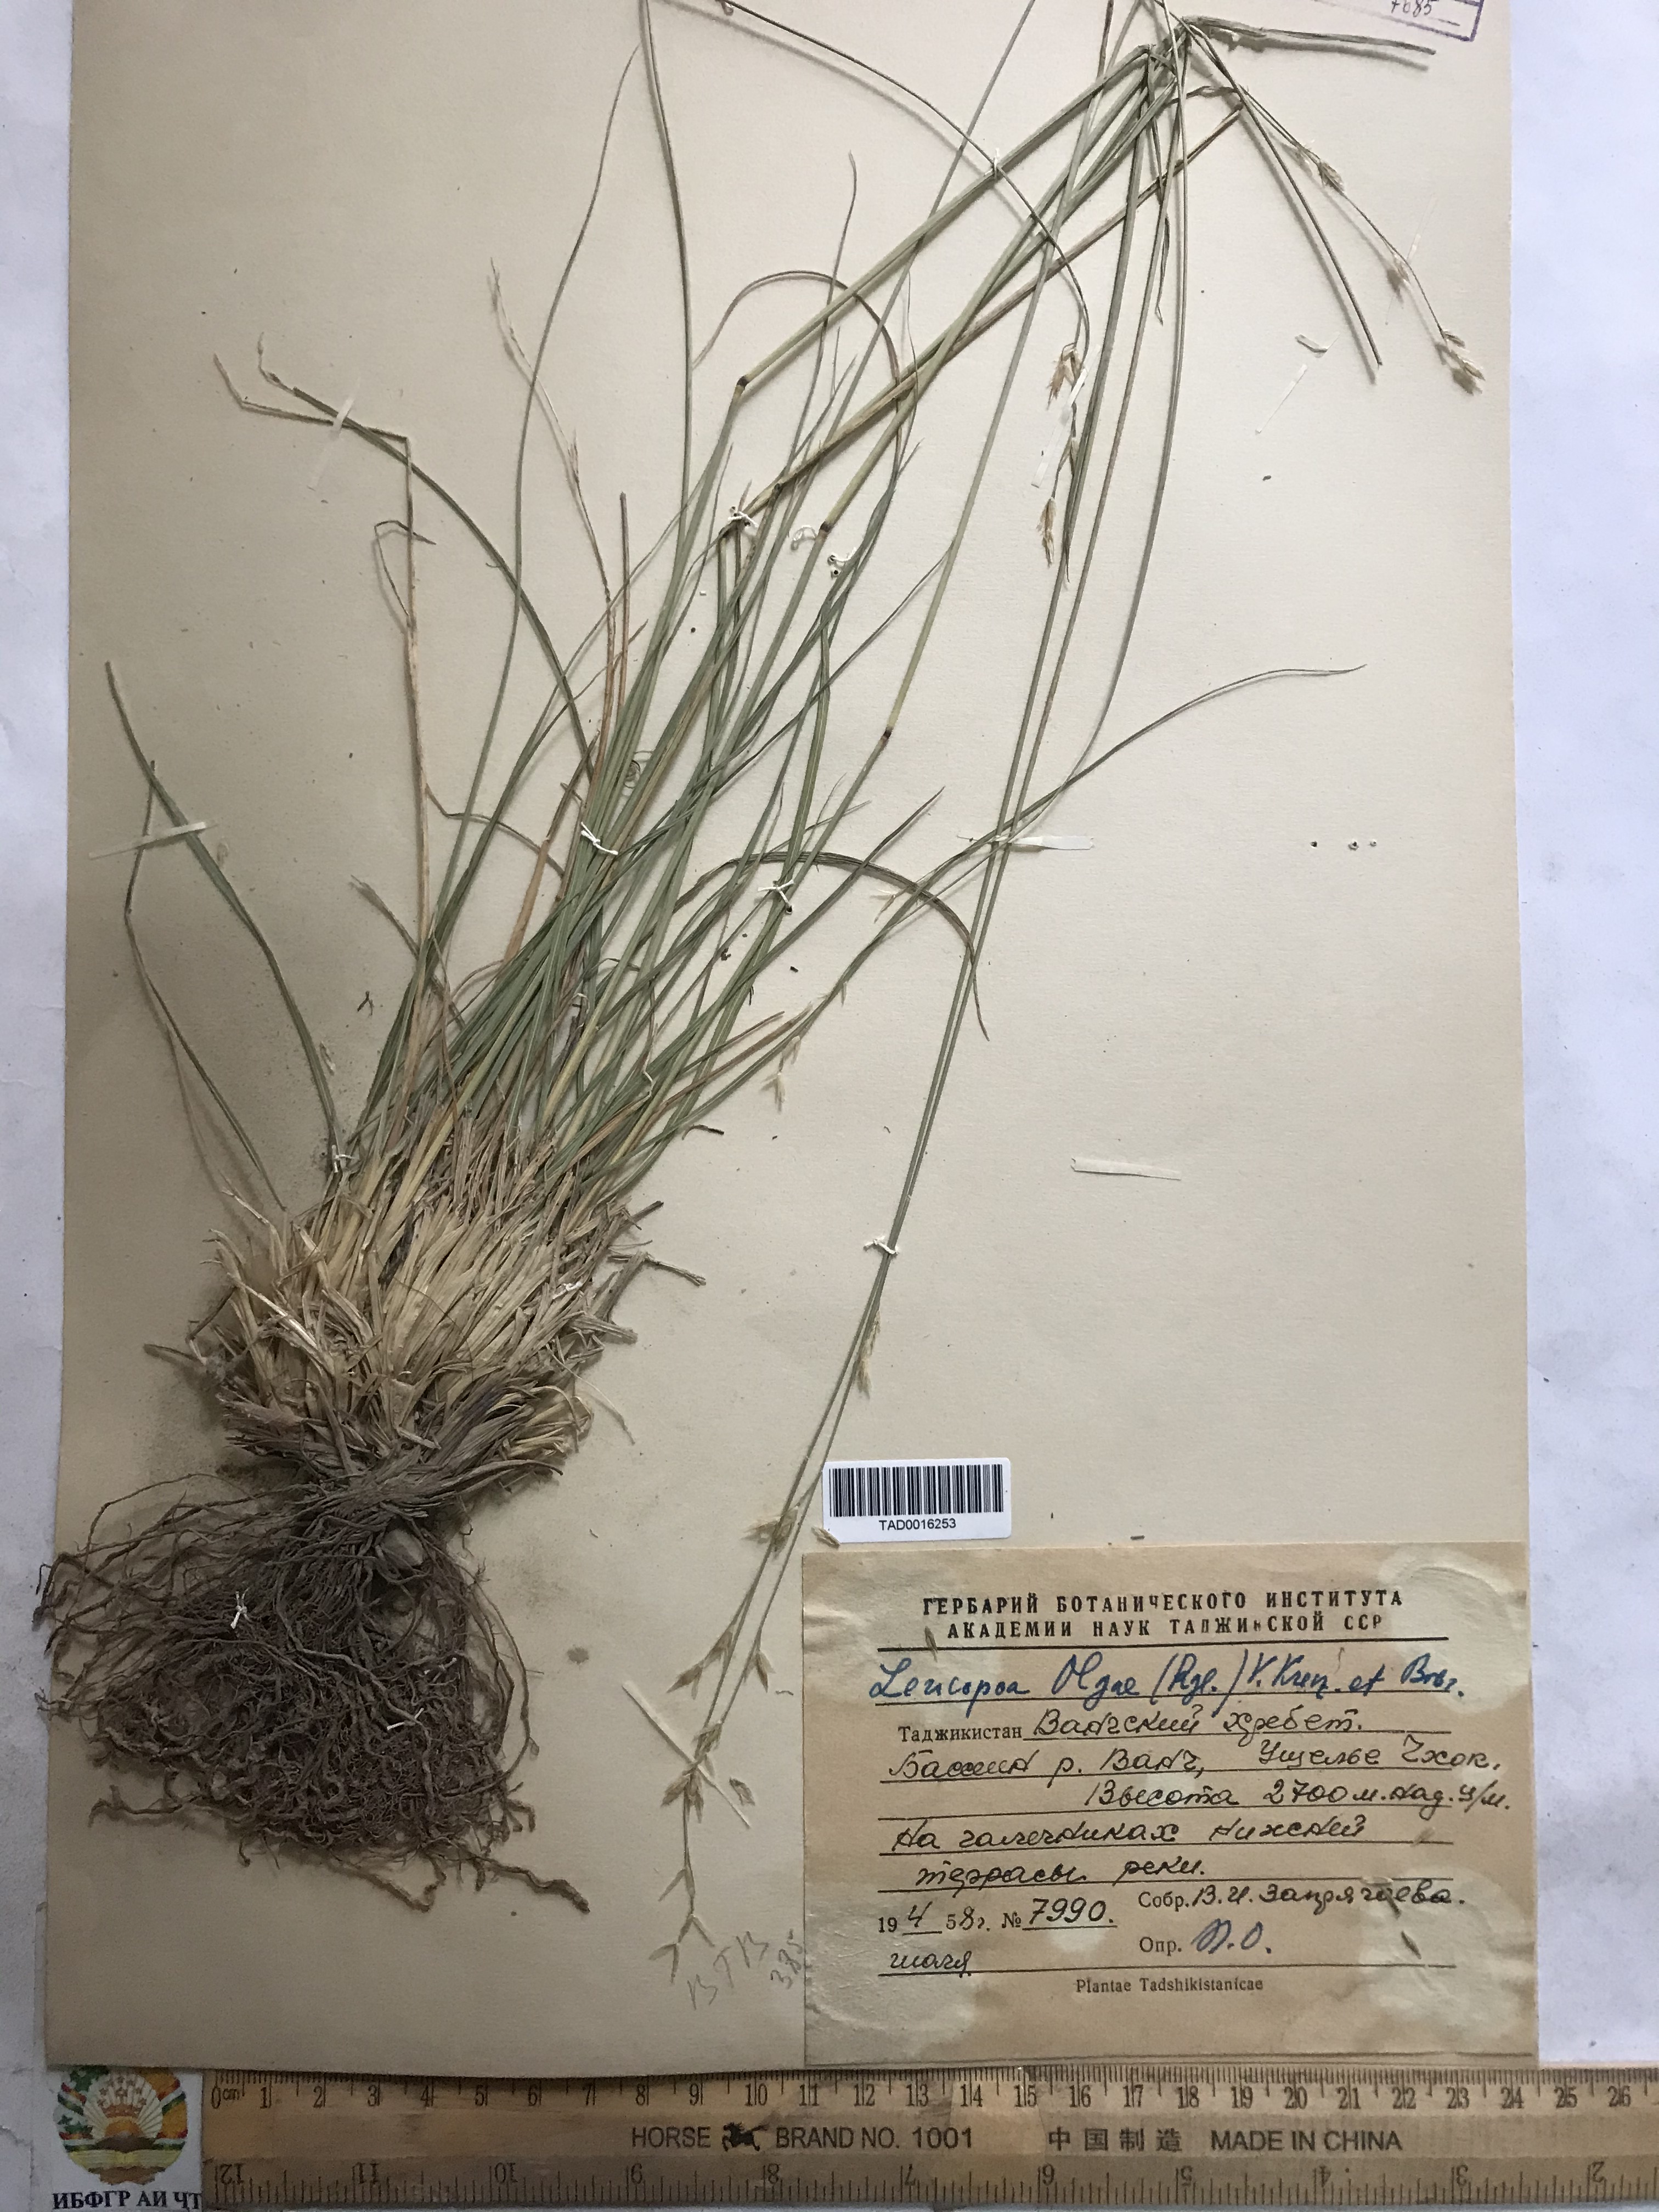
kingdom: Plantae
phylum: Tracheophyta
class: Liliopsida
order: Poales
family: Poaceae
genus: Festuca
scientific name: Festuca
